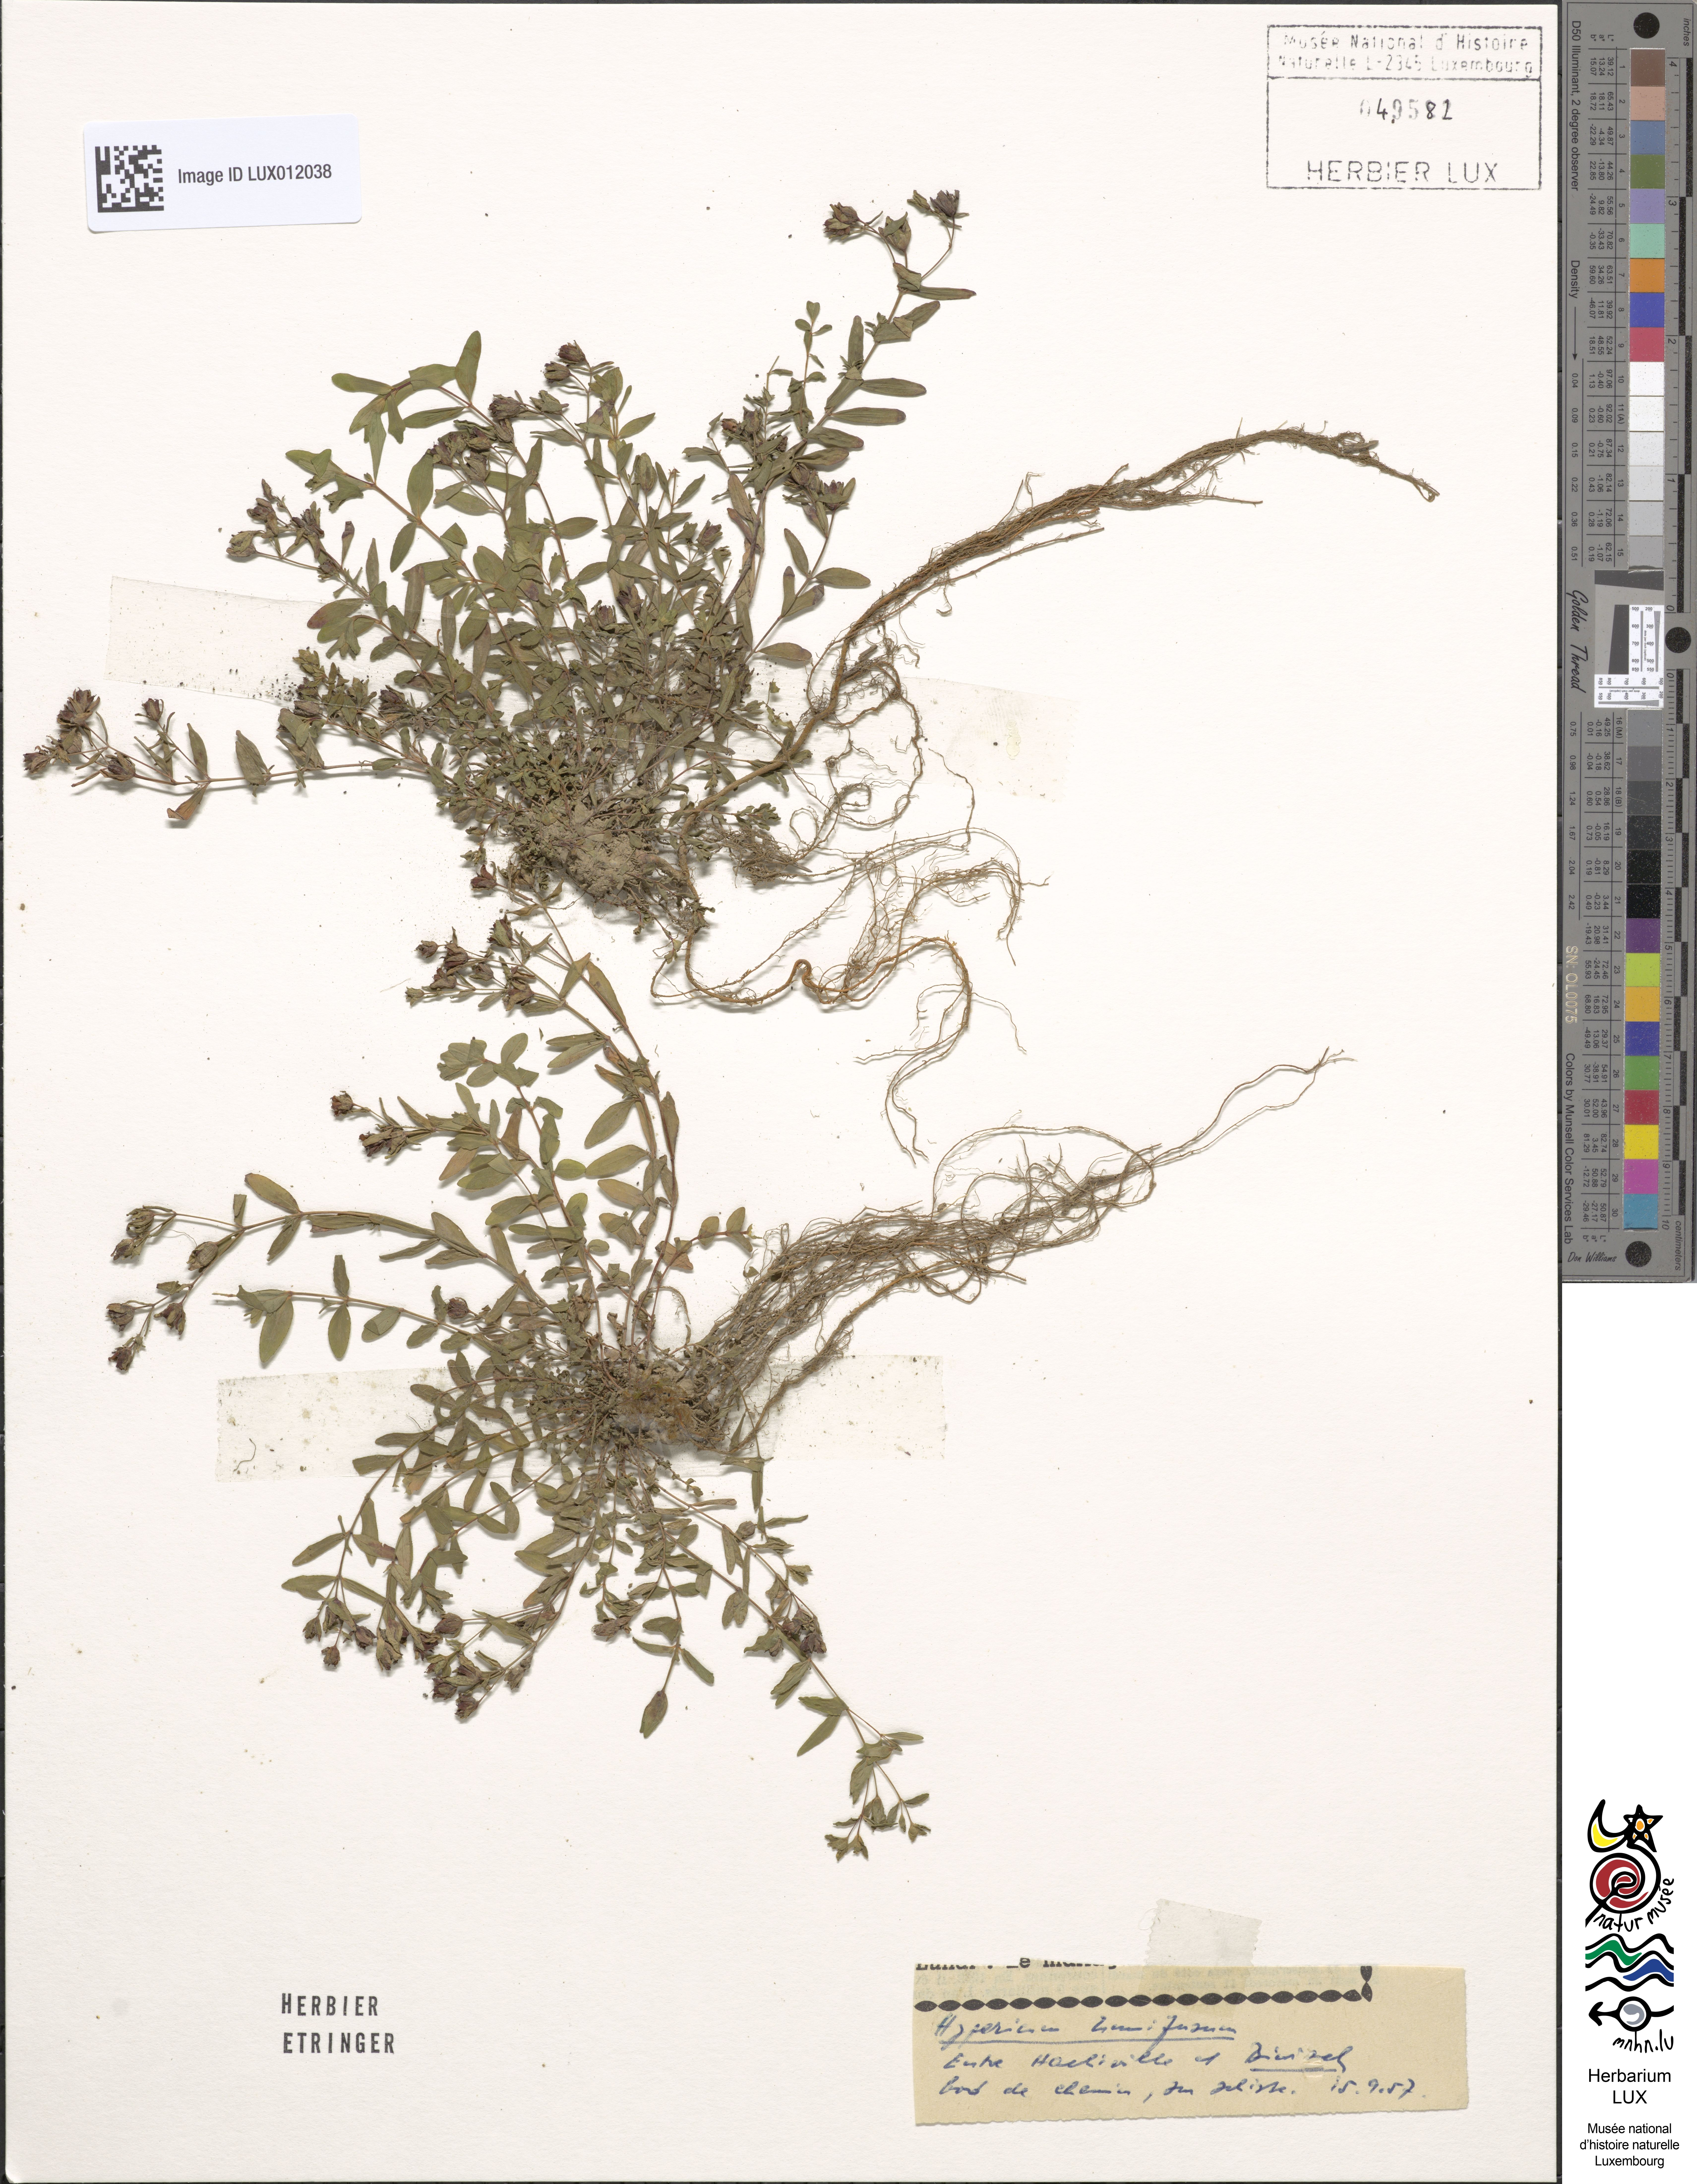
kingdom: Plantae
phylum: Tracheophyta
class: Magnoliopsida
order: Malpighiales
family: Hypericaceae
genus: Hypericum
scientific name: Hypericum humifusum
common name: Trailing st. john's-wort
